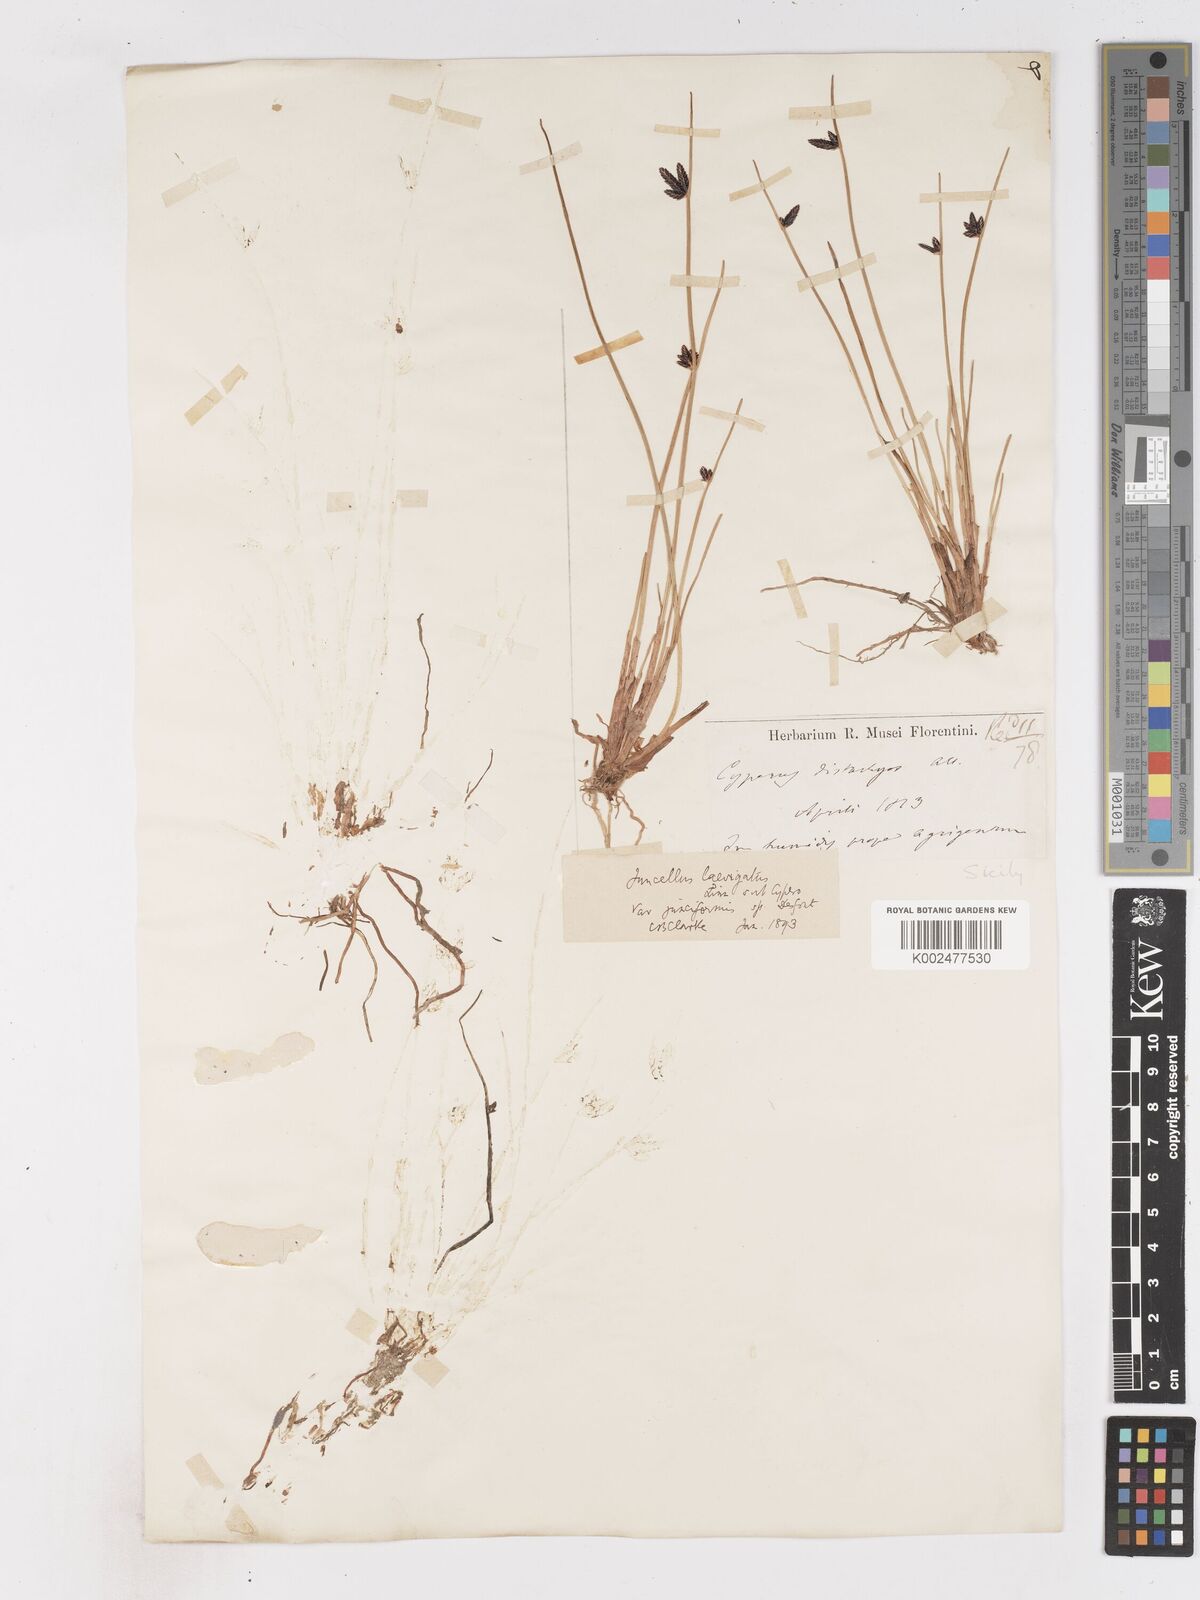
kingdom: Plantae
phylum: Tracheophyta
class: Liliopsida
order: Poales
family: Cyperaceae
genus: Cyperus
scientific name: Cyperus laevigatus
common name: Smooth flat sedge
